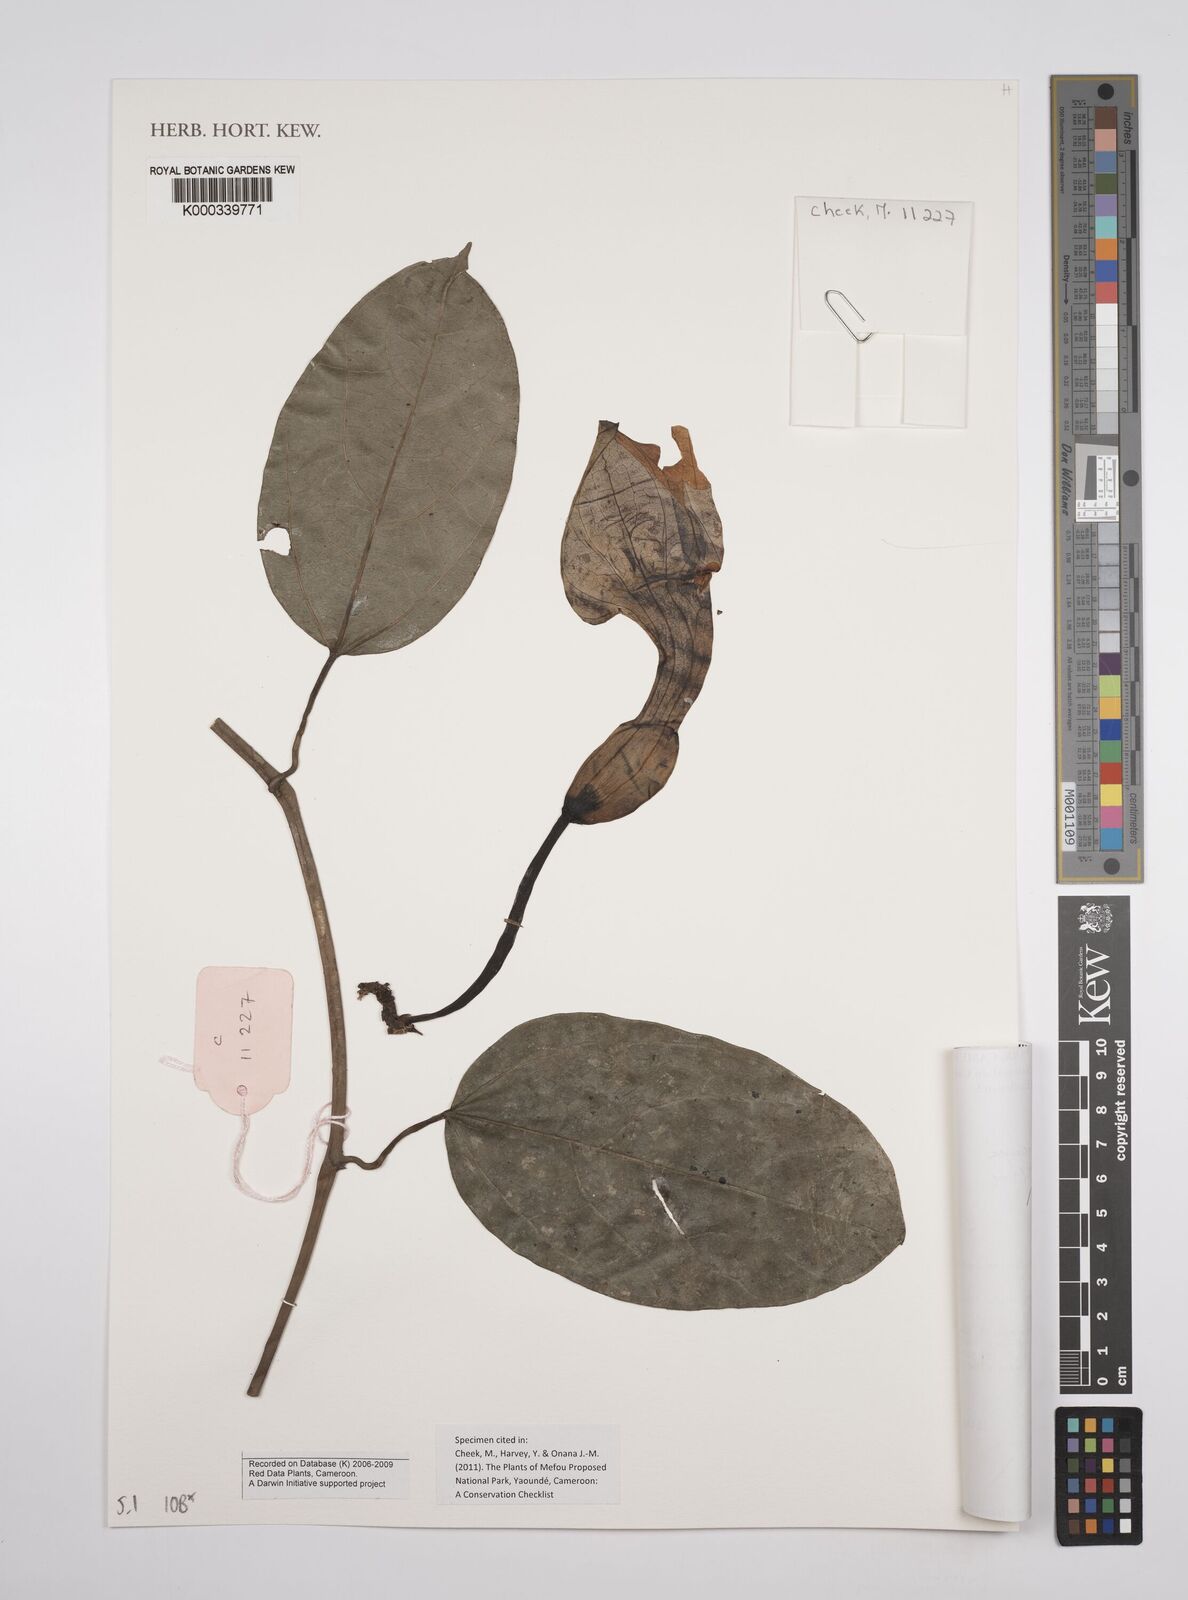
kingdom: Plantae
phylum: Tracheophyta
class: Magnoliopsida
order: Piperales
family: Aristolochiaceae
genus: Aristolochia
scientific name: Aristolochia macrocarpa
